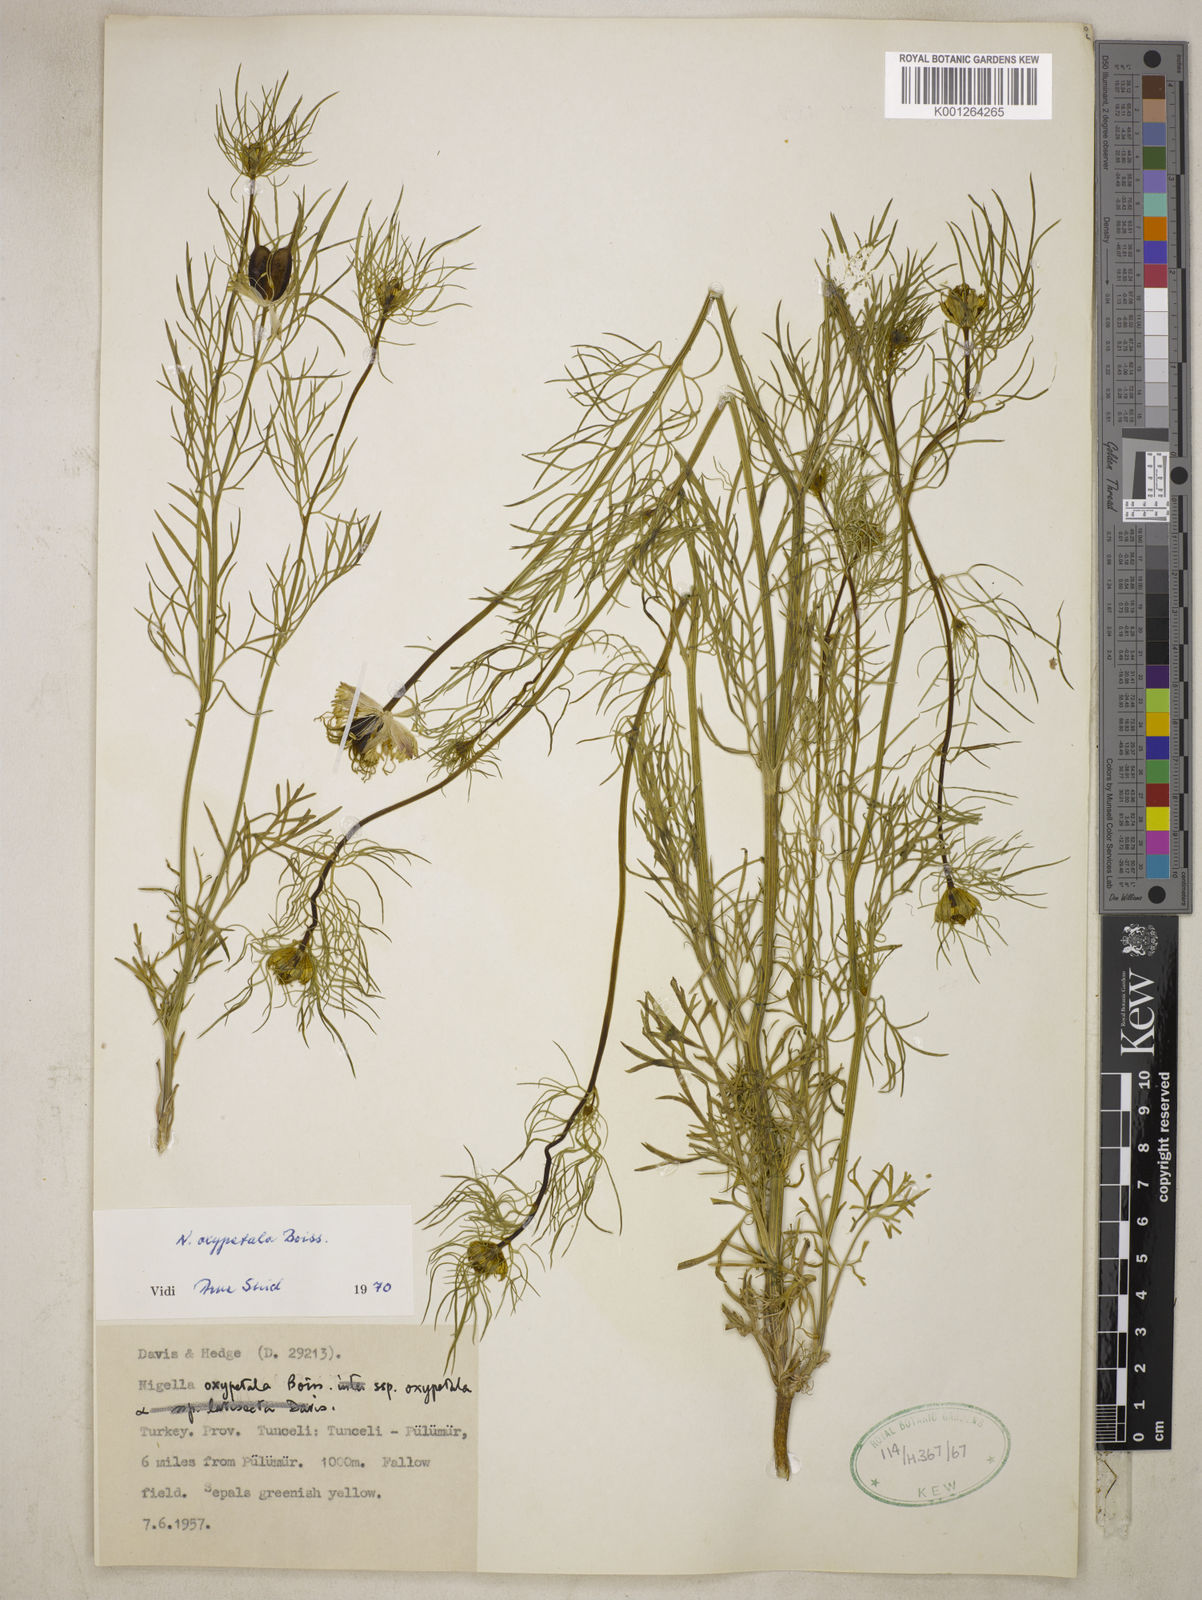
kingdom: Plantae
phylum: Tracheophyta
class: Magnoliopsida
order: Ranunculales
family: Ranunculaceae
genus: Nigella
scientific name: Nigella oxypetala
